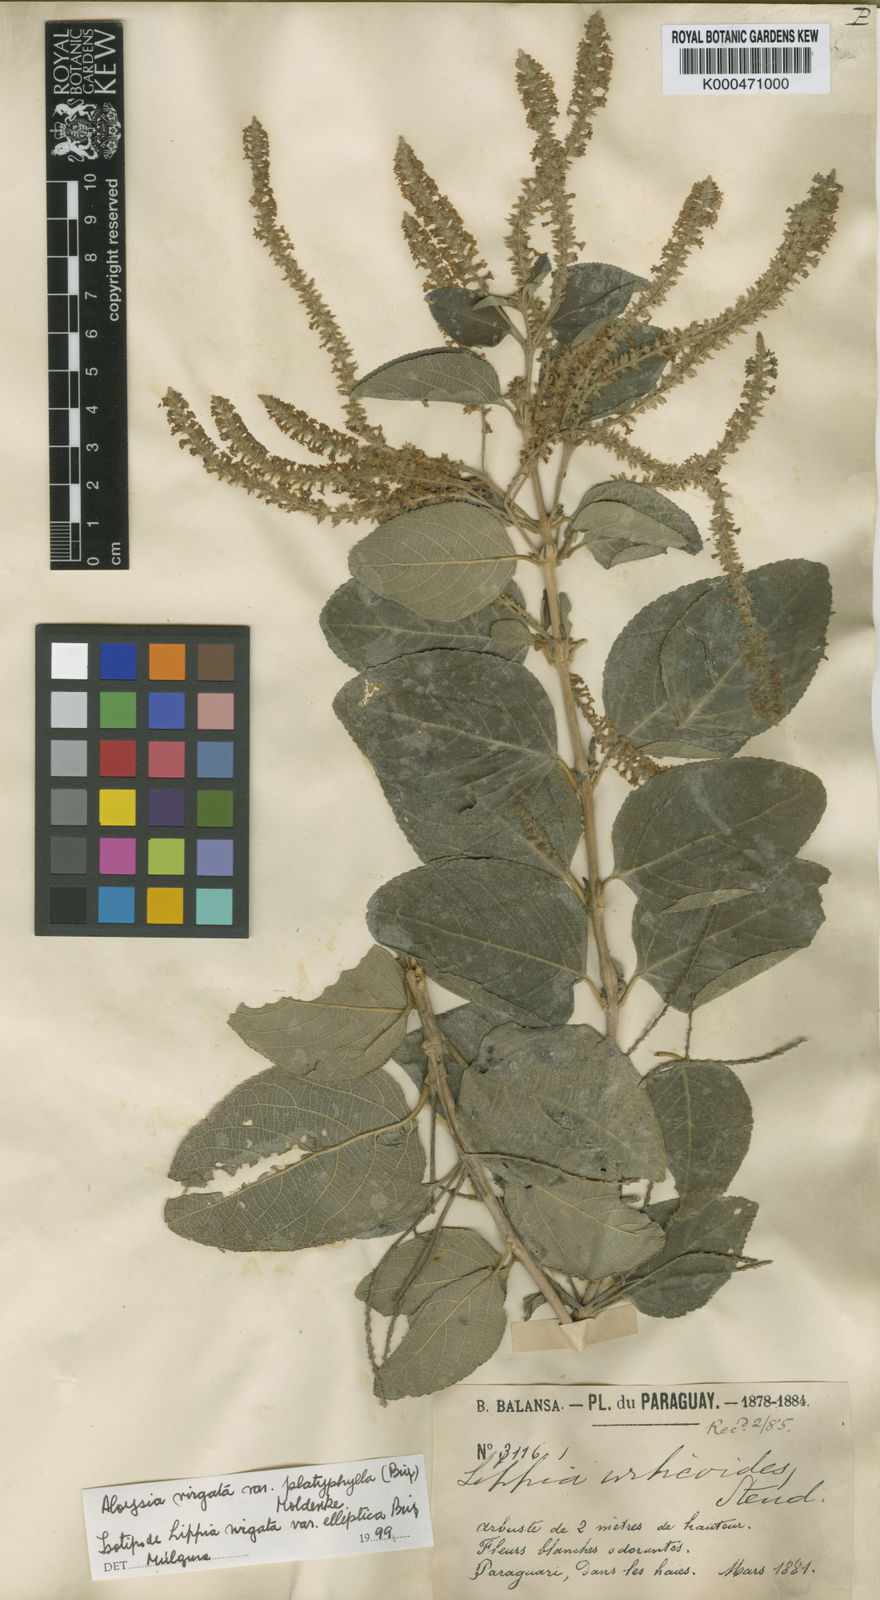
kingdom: Plantae
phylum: Tracheophyta
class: Magnoliopsida
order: Lamiales
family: Verbenaceae
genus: Aloysia
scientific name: Aloysia virgata
